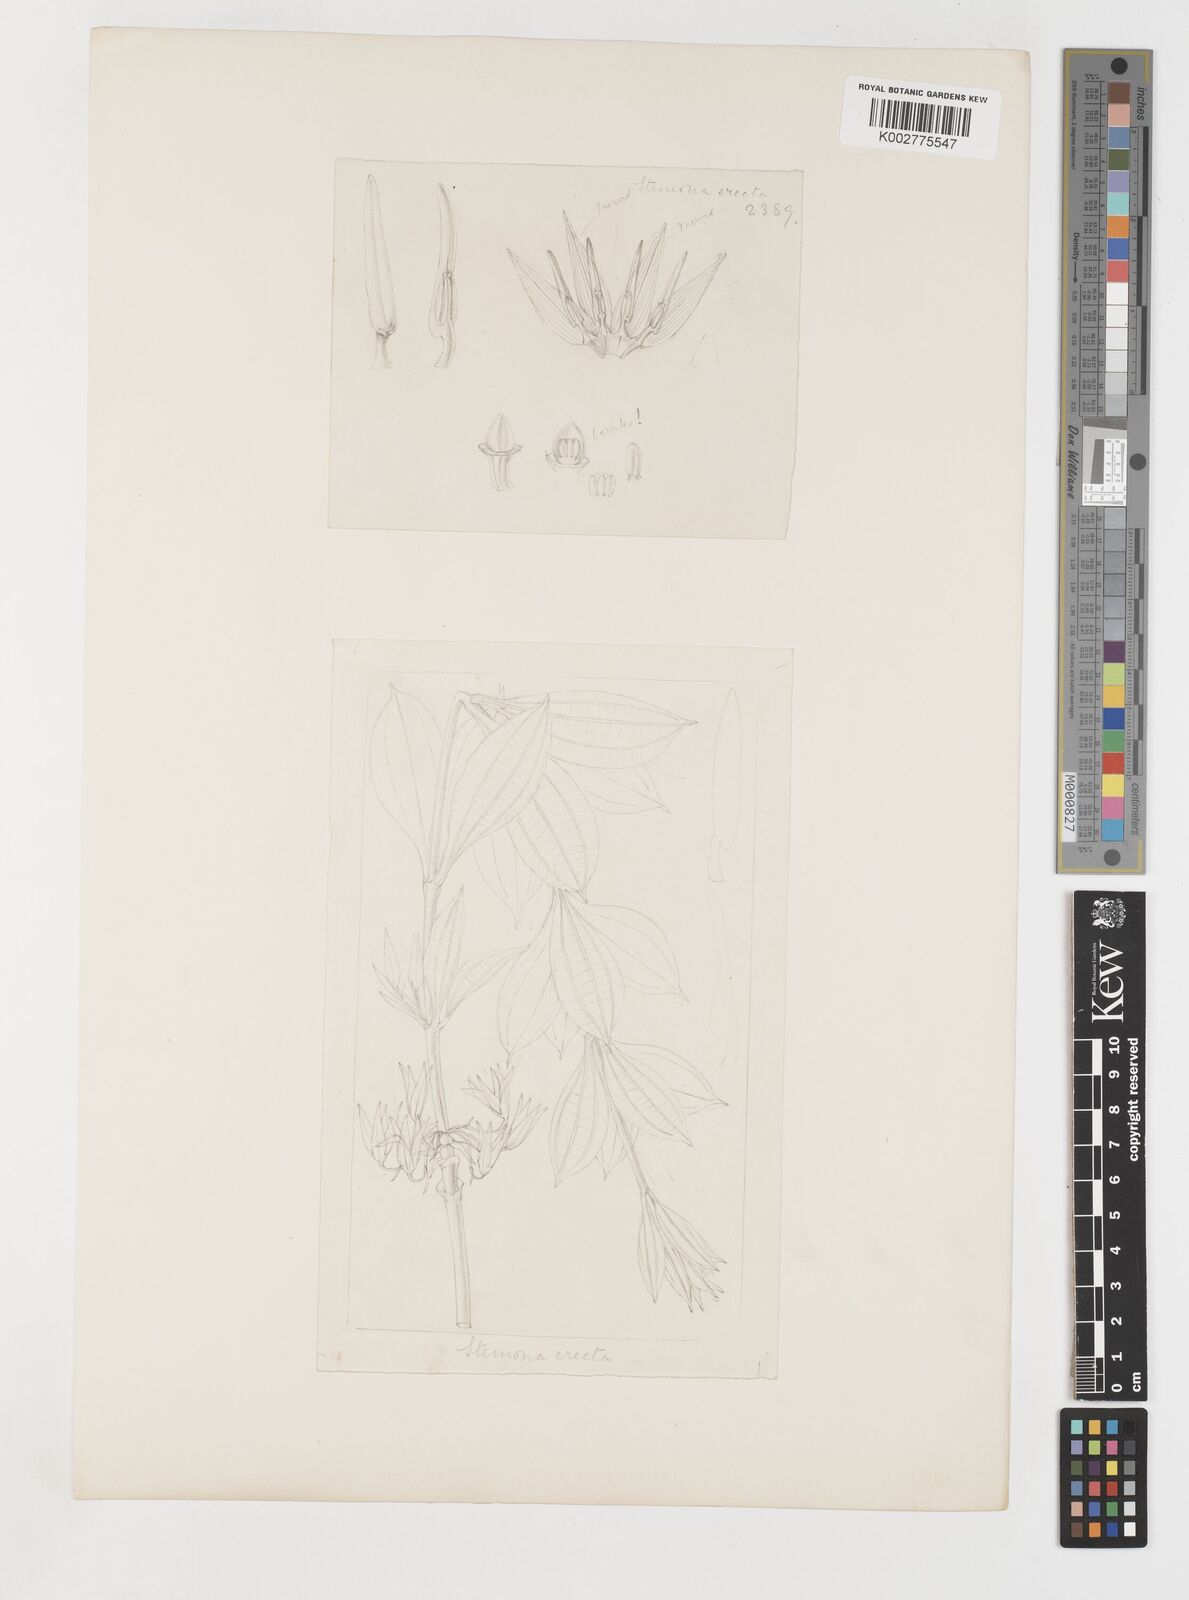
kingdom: Plantae
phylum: Tracheophyta
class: Liliopsida
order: Pandanales
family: Stemonaceae
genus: Stemona
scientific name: Stemona sessilifolia
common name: Stemona
